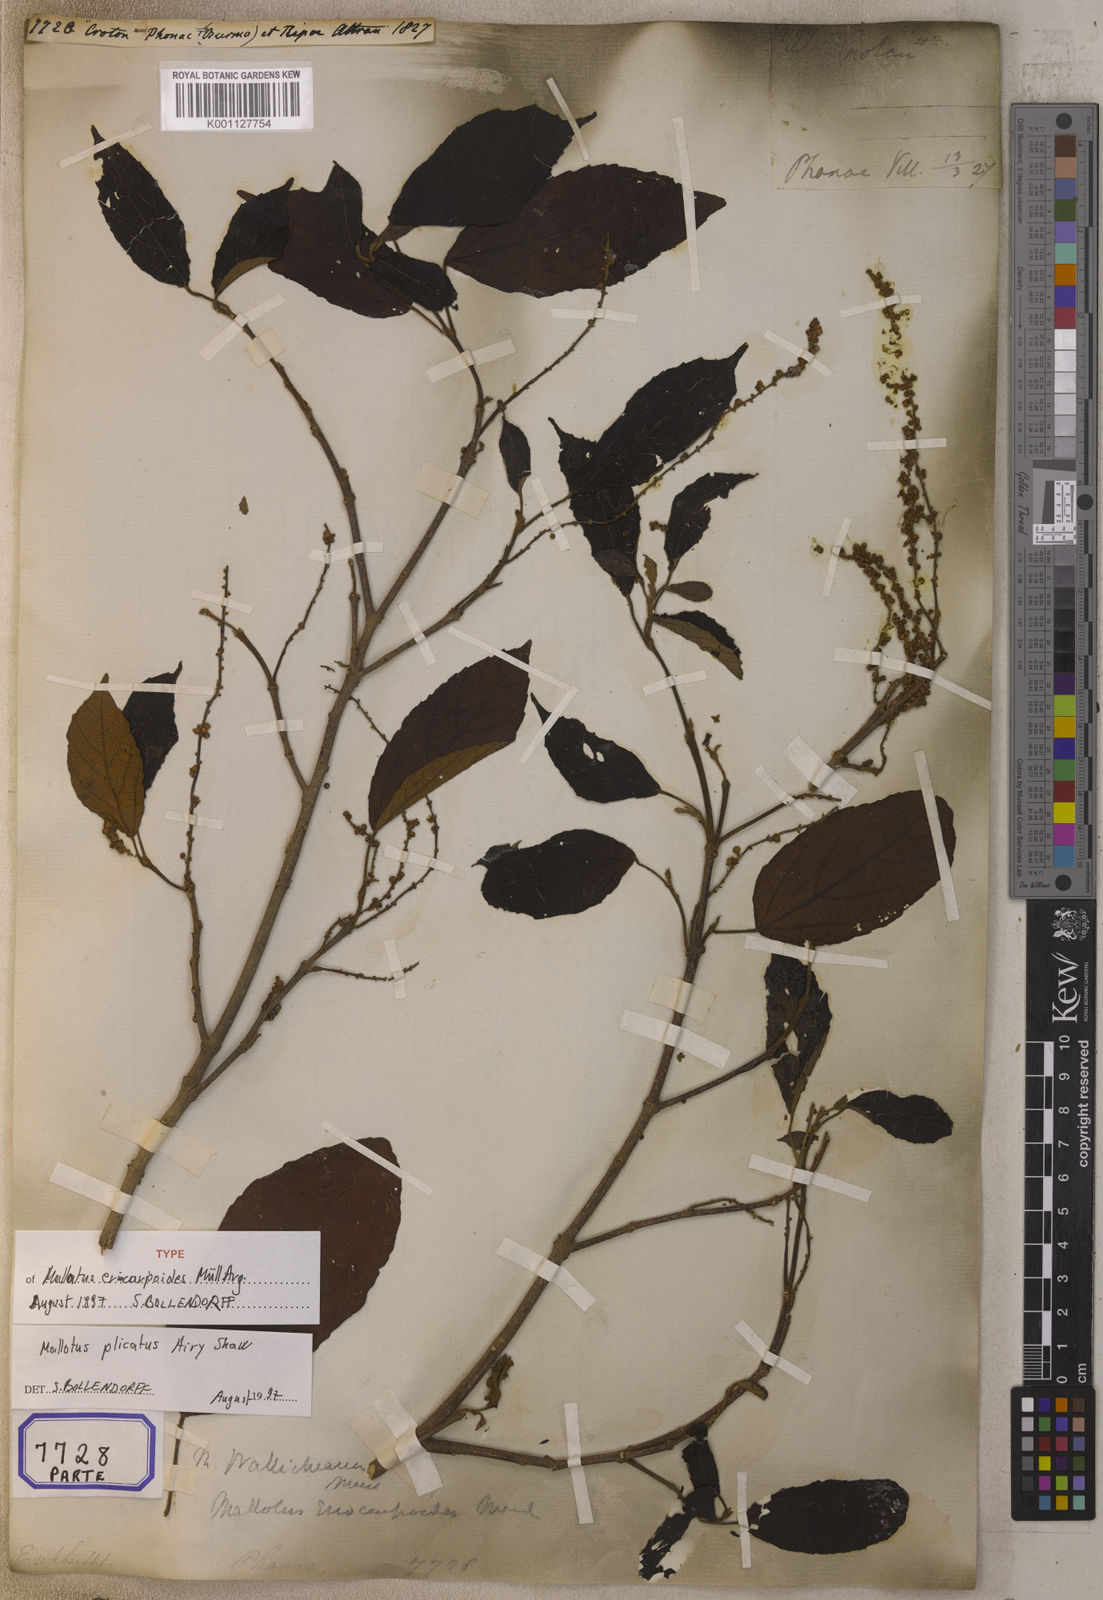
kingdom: Plantae
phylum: Tracheophyta
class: Magnoliopsida
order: Malpighiales
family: Euphorbiaceae
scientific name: Euphorbiaceae
